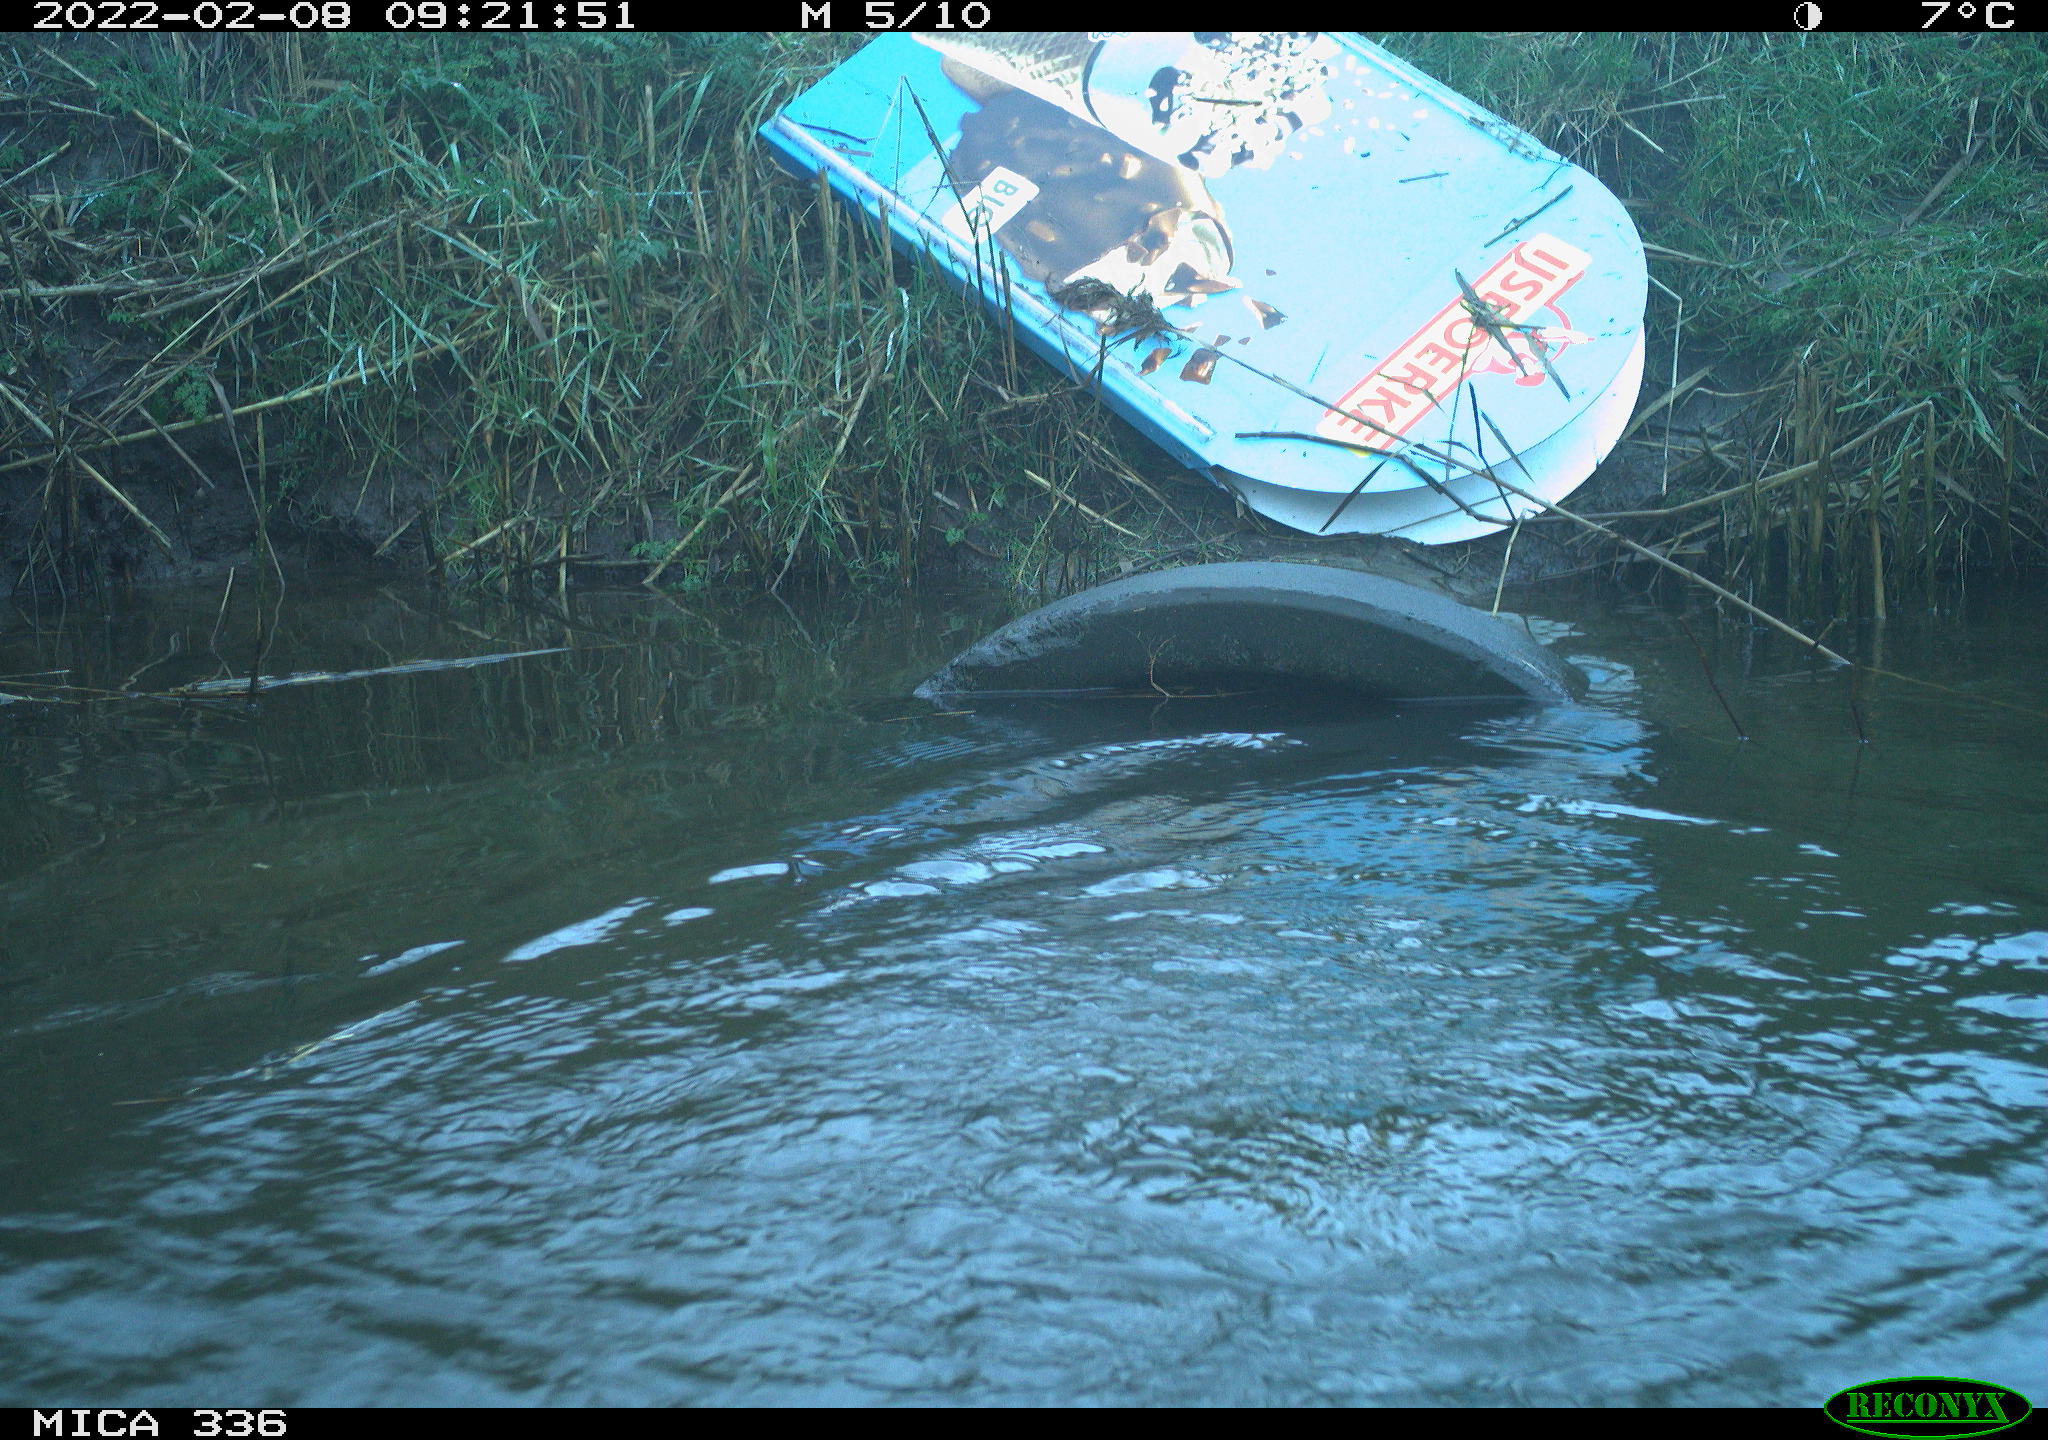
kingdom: Animalia
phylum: Chordata
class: Aves
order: Suliformes
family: Phalacrocoracidae
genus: Phalacrocorax
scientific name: Phalacrocorax carbo
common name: Great cormorant
